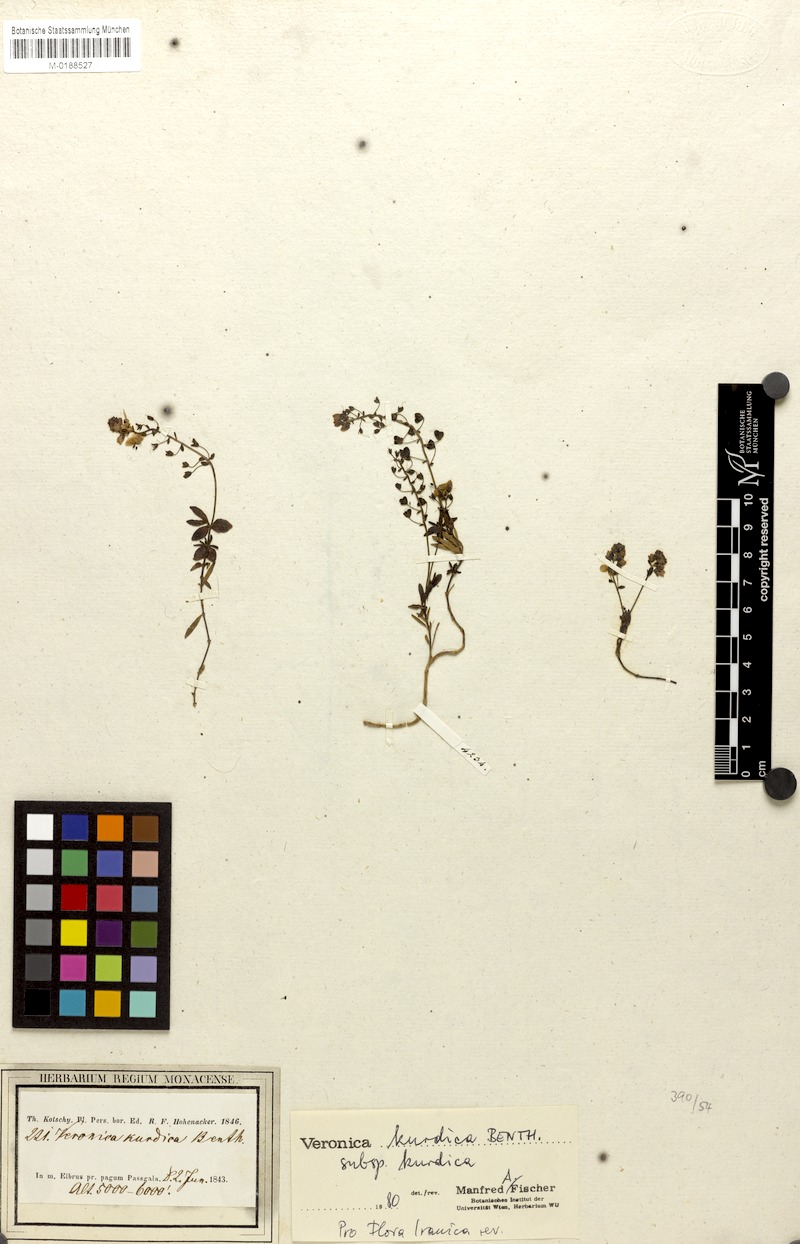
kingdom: Plantae
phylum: Tracheophyta
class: Magnoliopsida
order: Lamiales
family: Plantaginaceae
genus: Veronica
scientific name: Veronica kurdica
